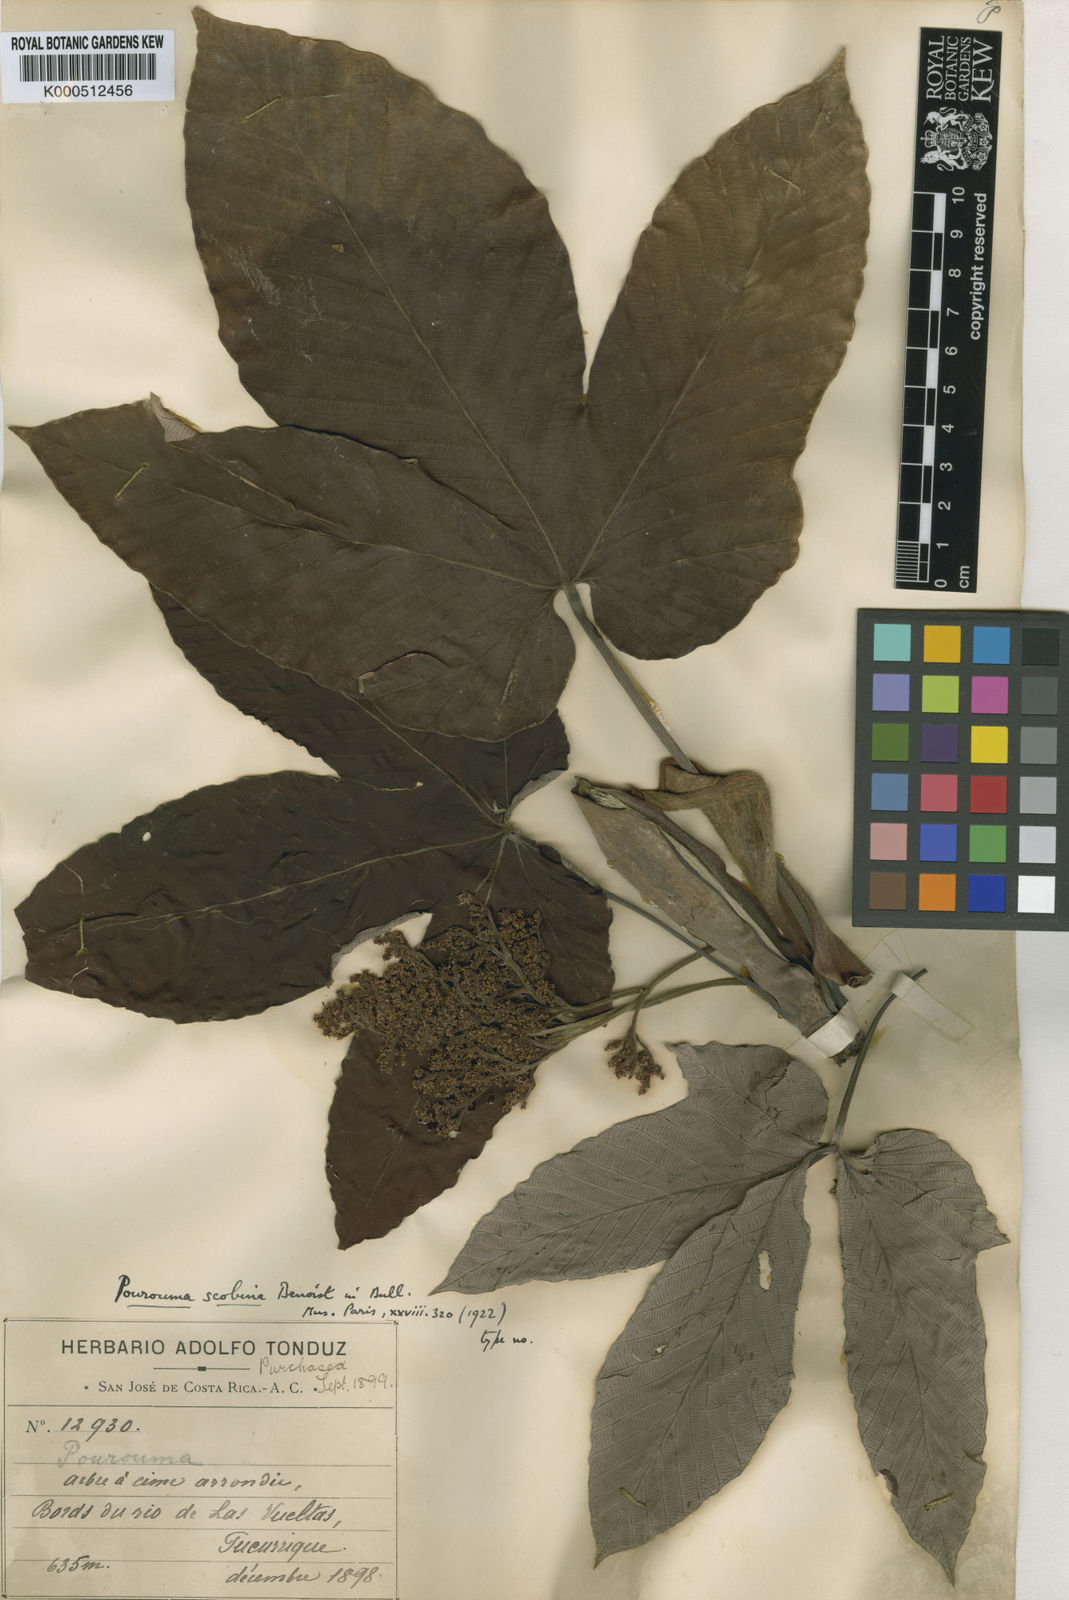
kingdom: Plantae
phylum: Tracheophyta
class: Magnoliopsida
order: Rosales
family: Urticaceae
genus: Pourouma
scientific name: Pourouma bicolor
